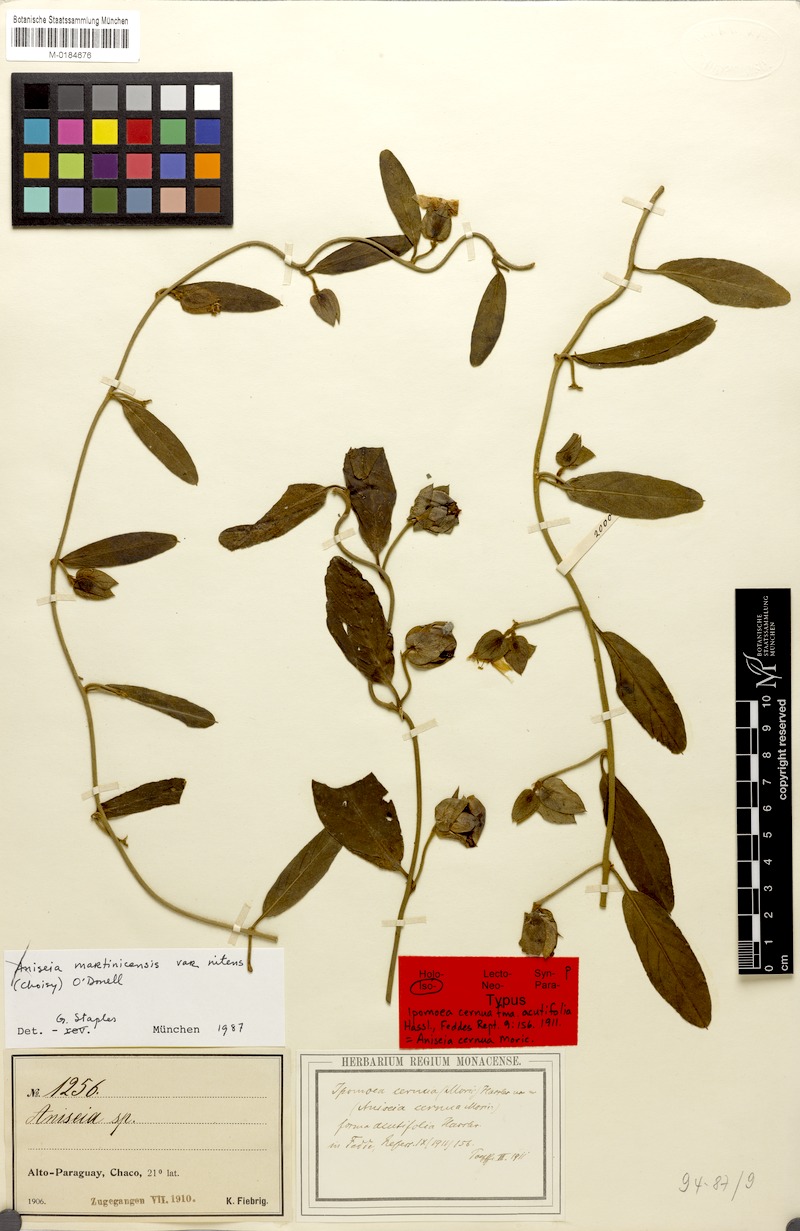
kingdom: Plantae
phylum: Tracheophyta
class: Magnoliopsida
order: Solanales
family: Convolvulaceae
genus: Aniseia
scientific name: Aniseia martinicensis
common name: Kulayadambu
